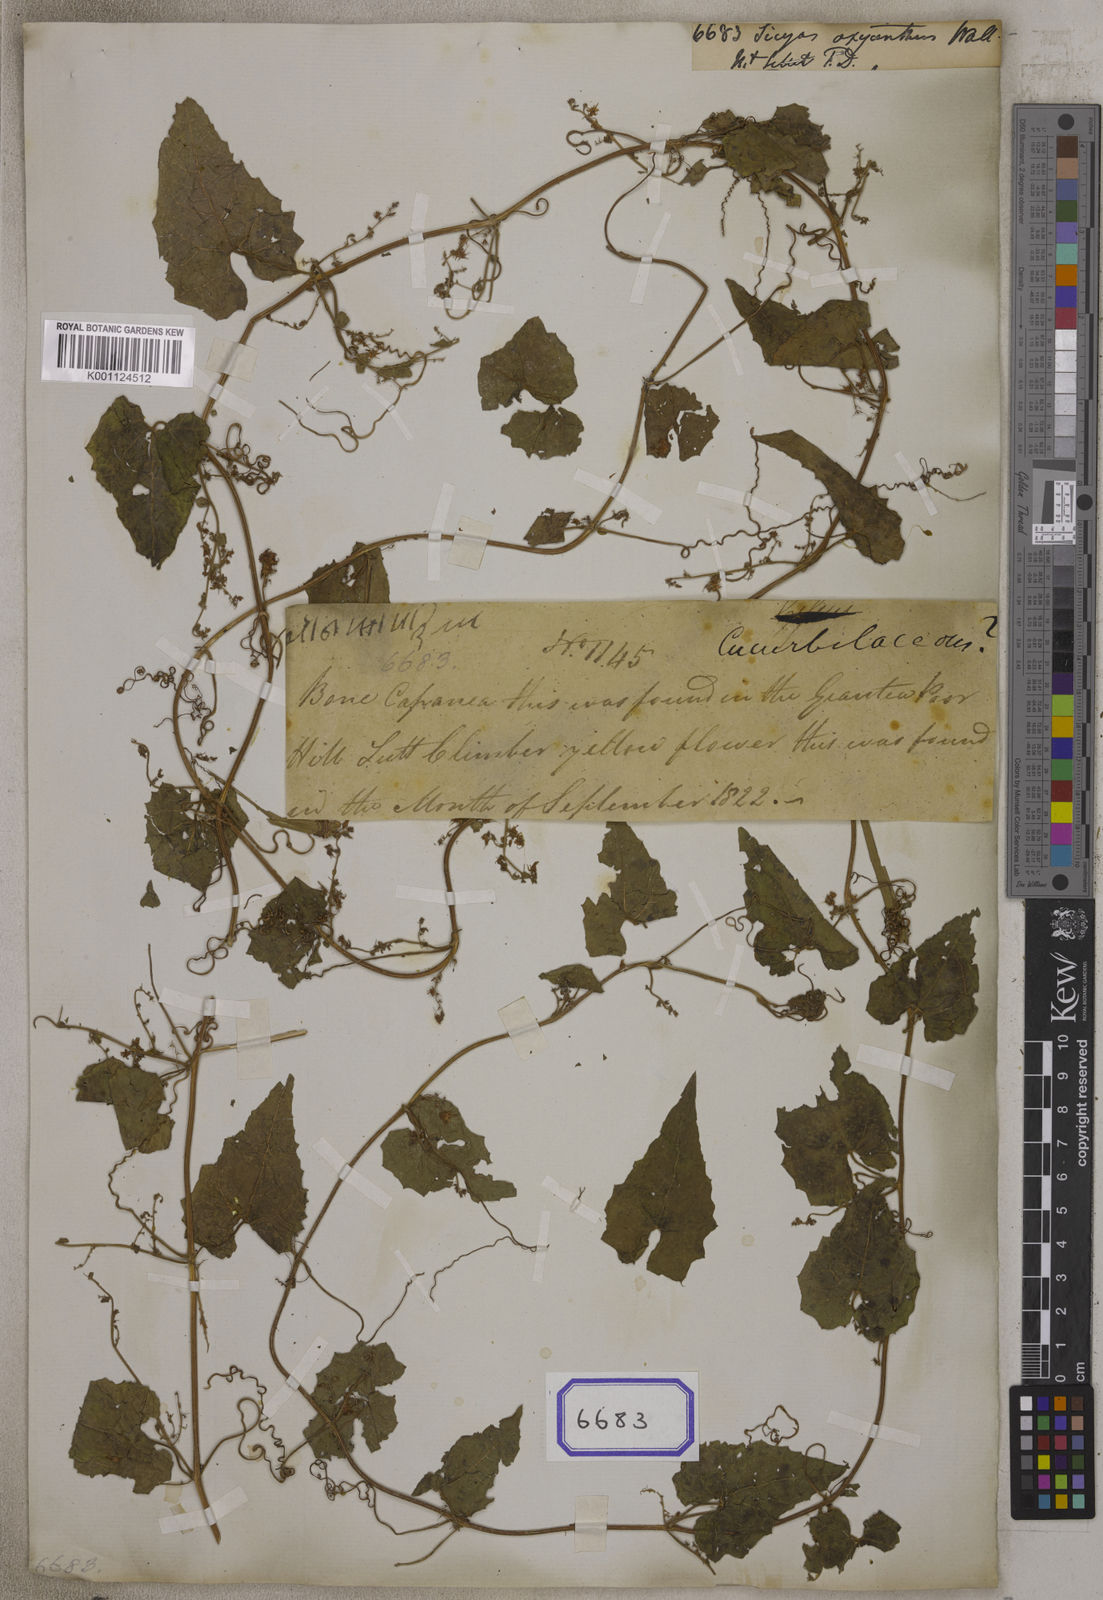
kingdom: Plantae
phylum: Tracheophyta
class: Magnoliopsida
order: Cucurbitales
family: Cucurbitaceae
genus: Actinostemma
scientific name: Actinostemma tenerum
